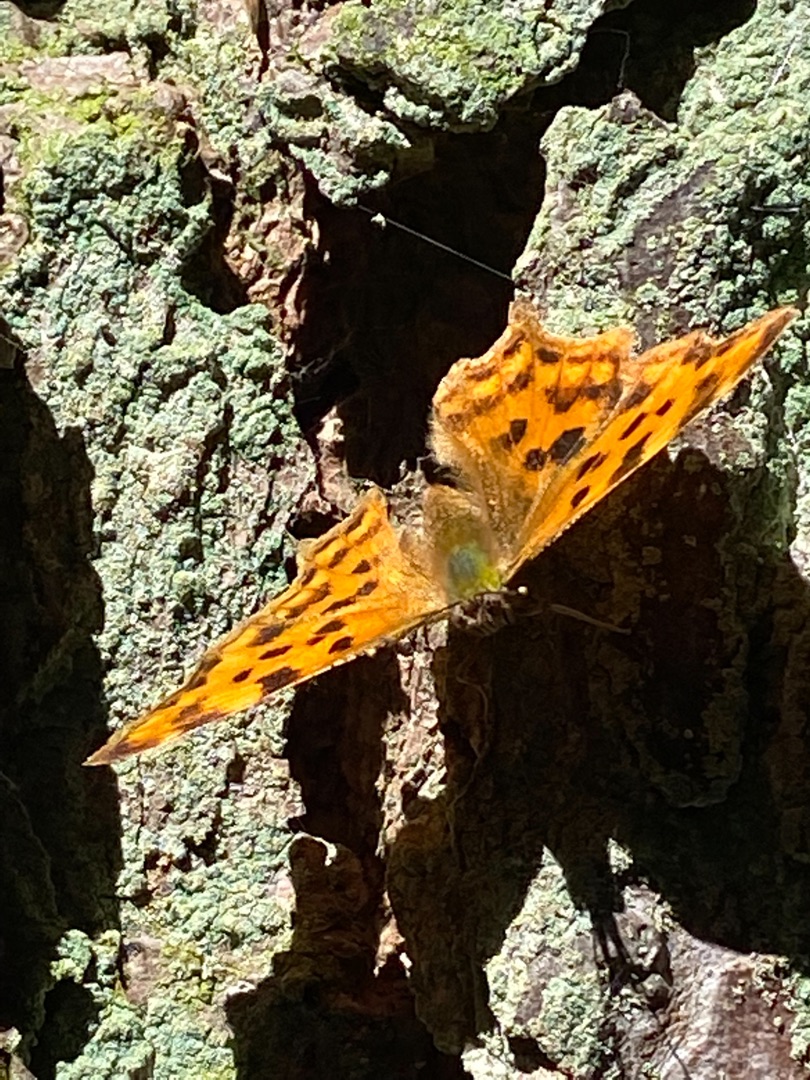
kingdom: Animalia
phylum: Arthropoda
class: Insecta
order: Lepidoptera
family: Nymphalidae
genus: Polygonia
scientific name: Polygonia c-album
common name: Det hvide C
